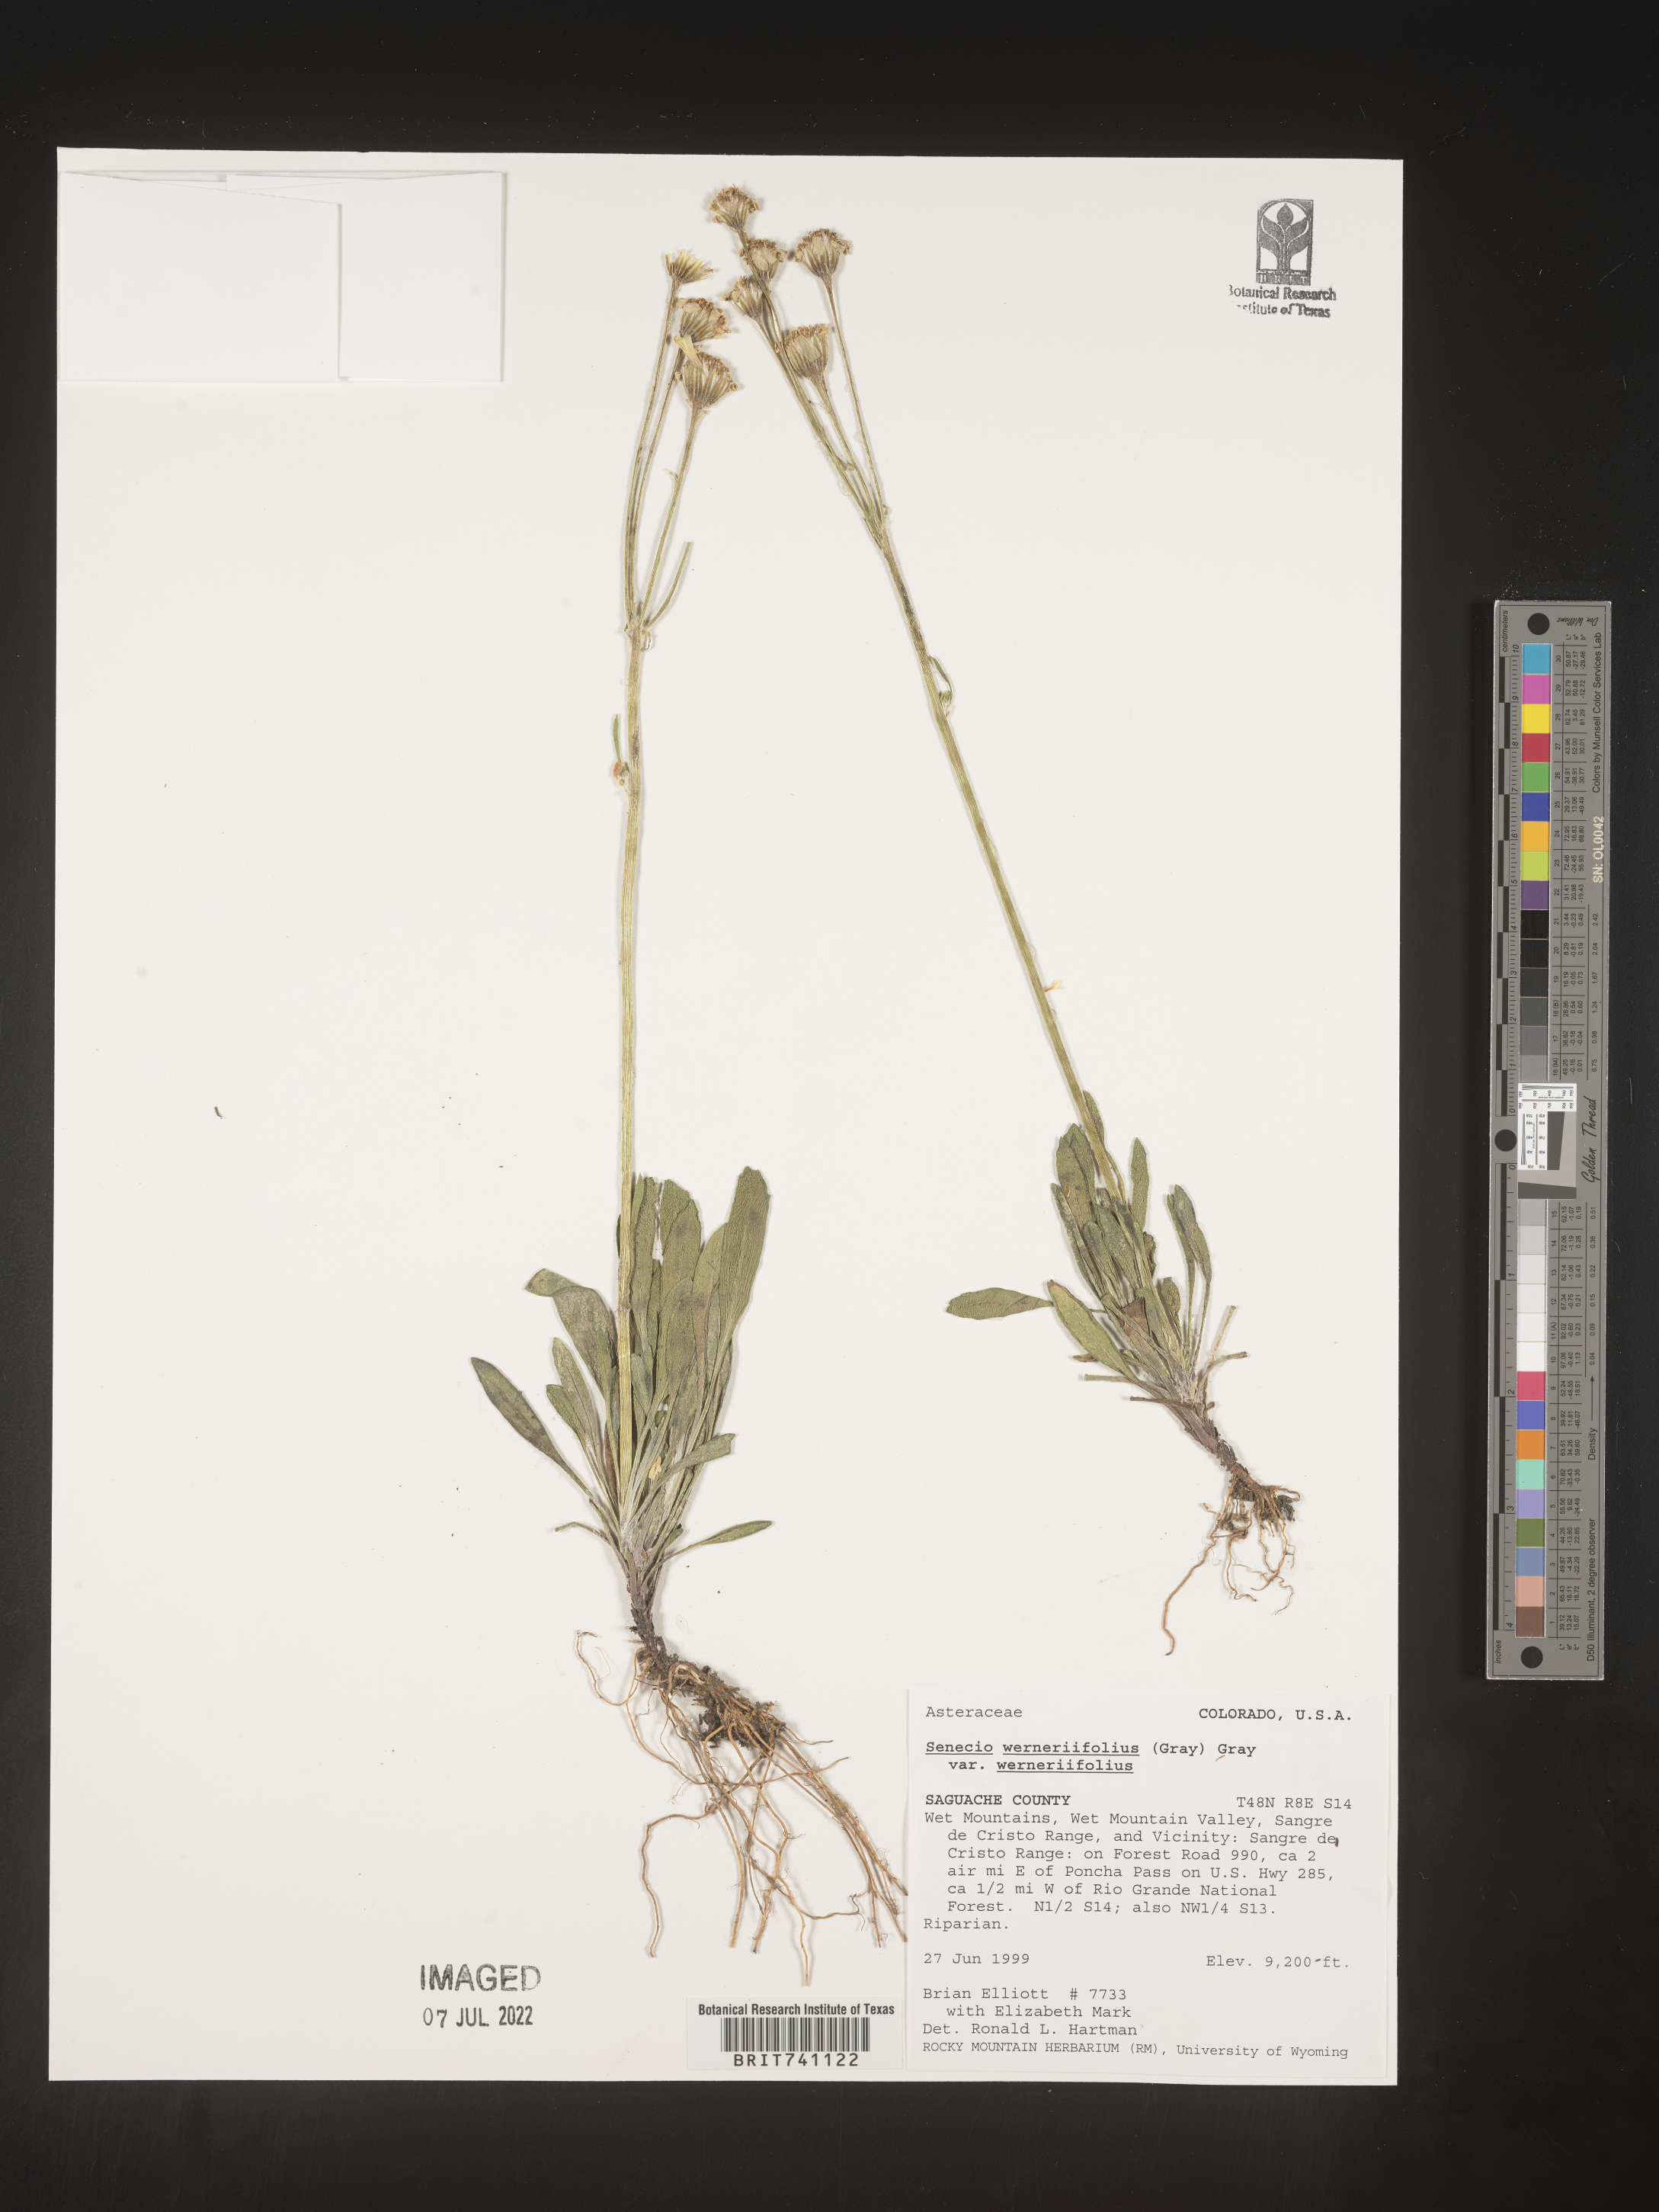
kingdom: Plantae
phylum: Tracheophyta
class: Magnoliopsida
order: Asterales
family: Asteraceae
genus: Packera
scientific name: Packera werneriifolia
